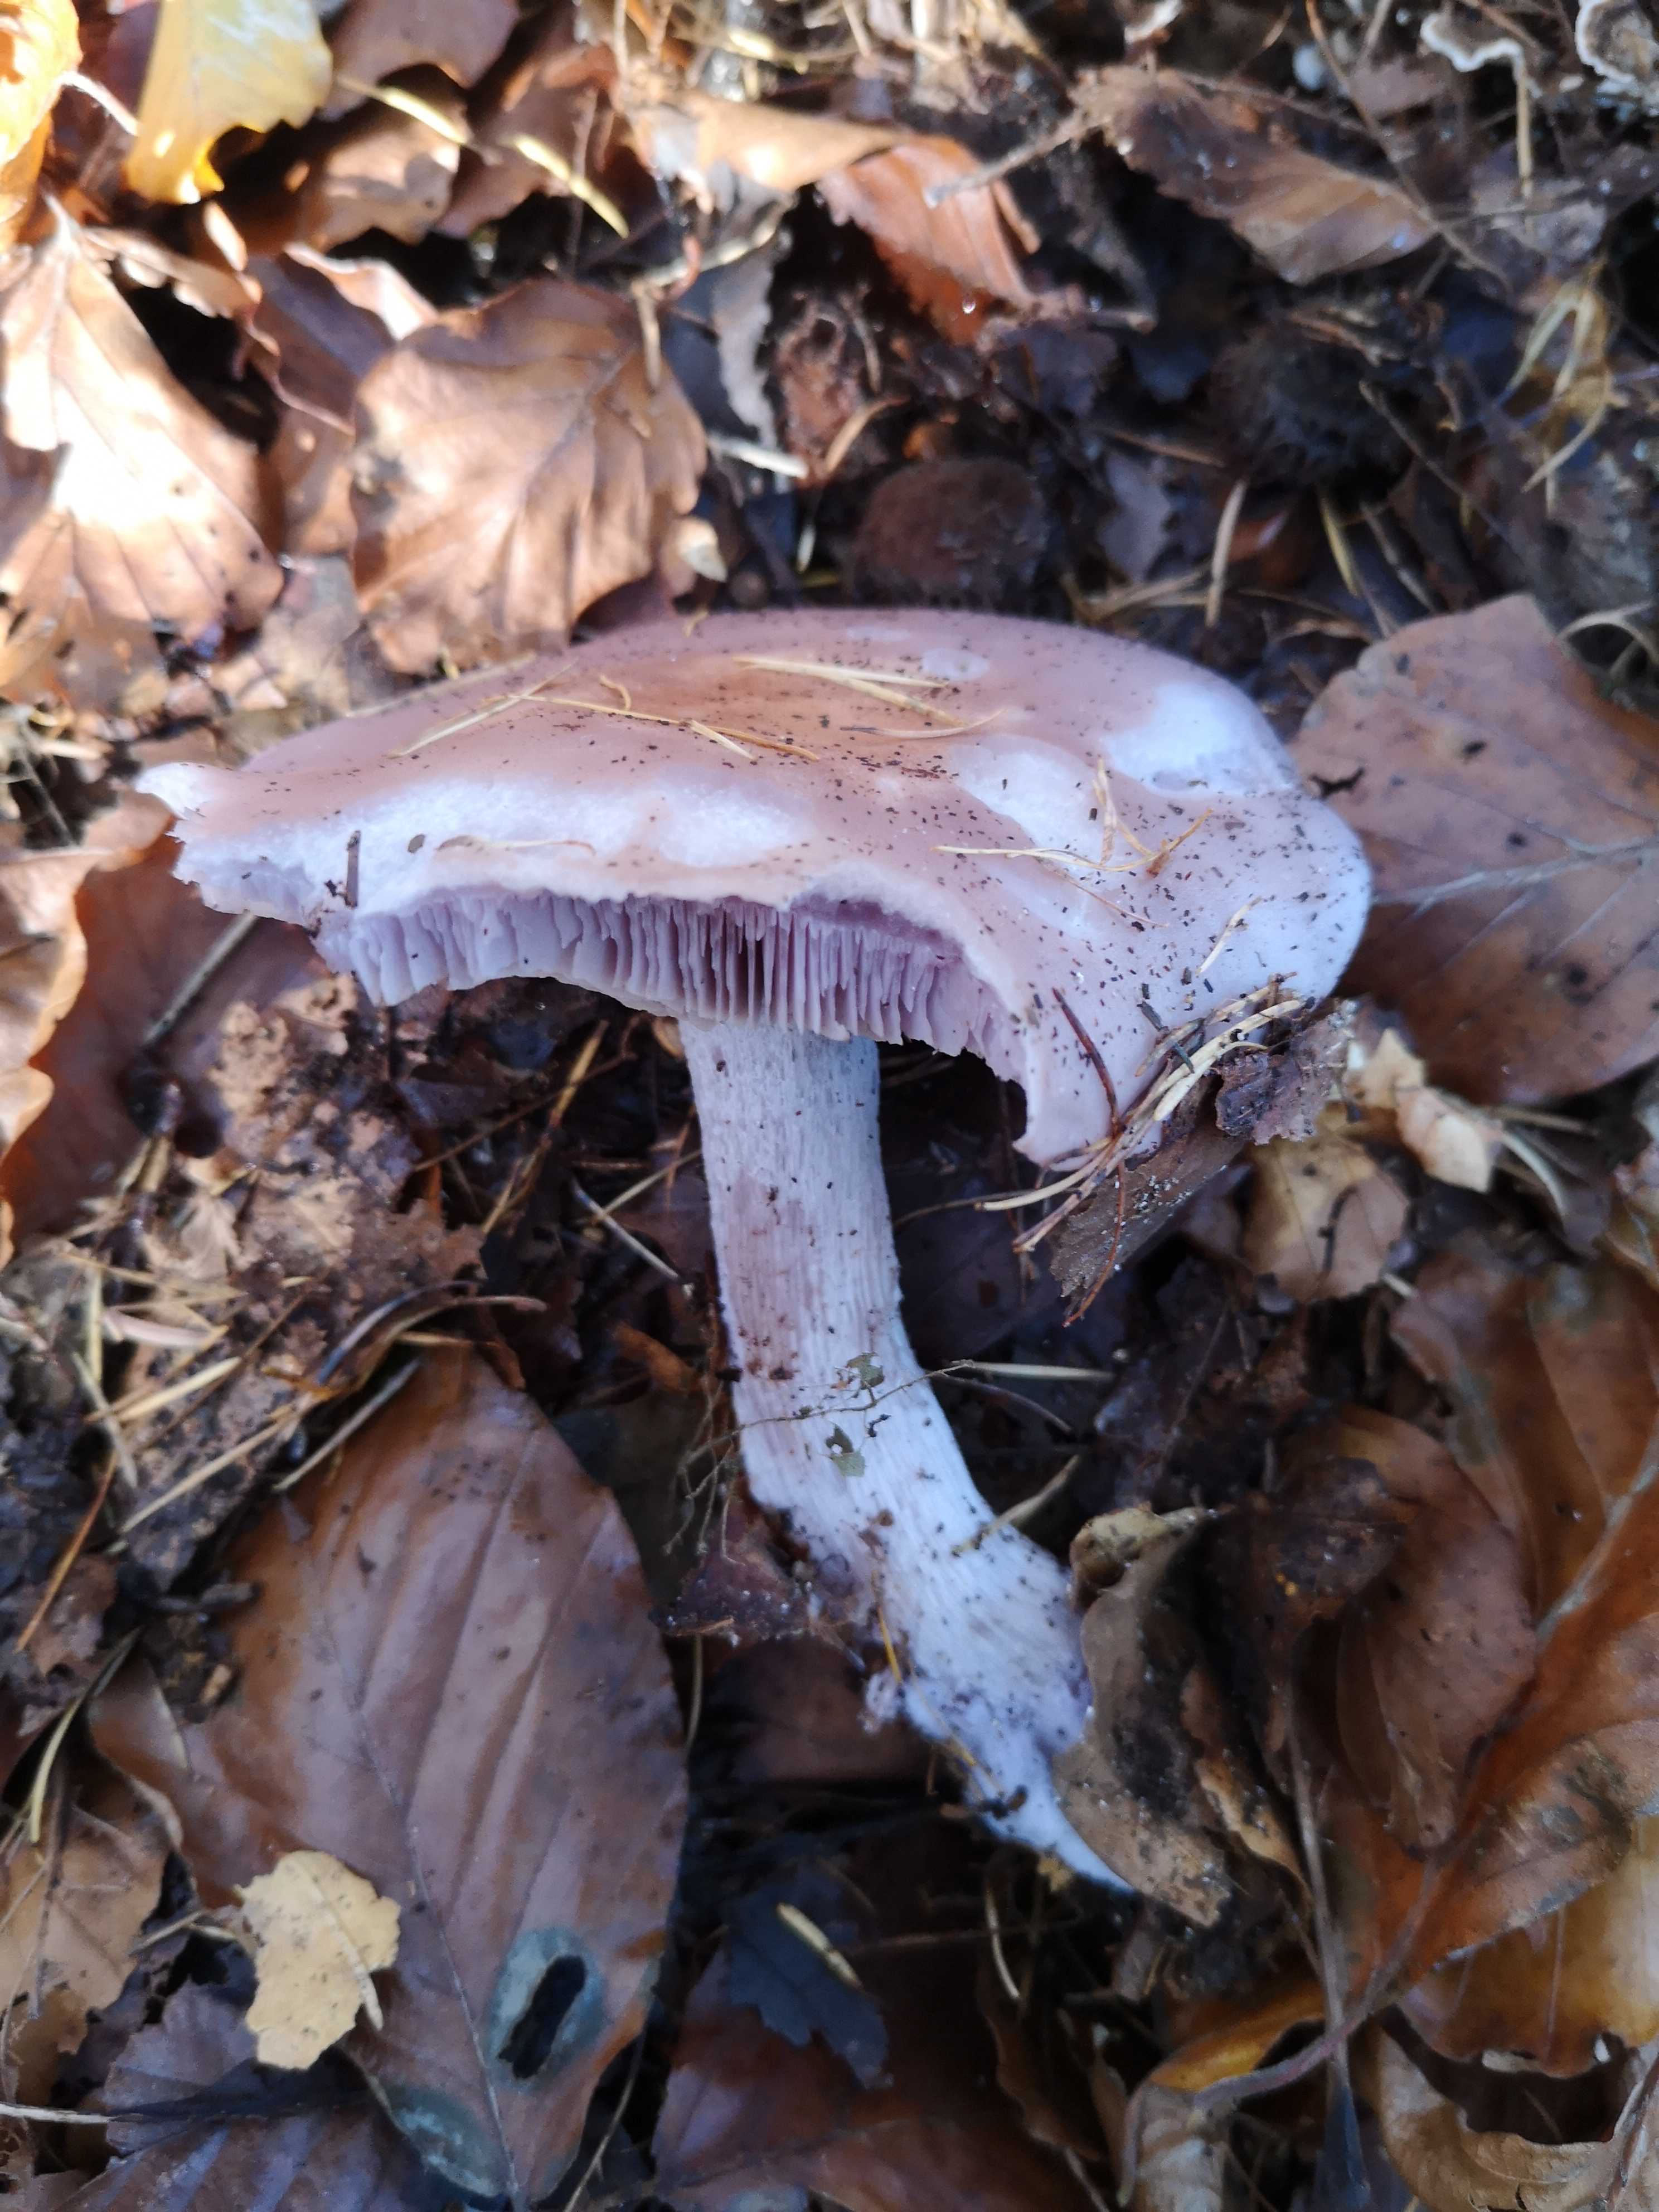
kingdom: Fungi
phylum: Basidiomycota
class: Agaricomycetes
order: Agaricales
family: Tricholomataceae
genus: Lepista
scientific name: Lepista nuda
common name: violet hekseringshat
